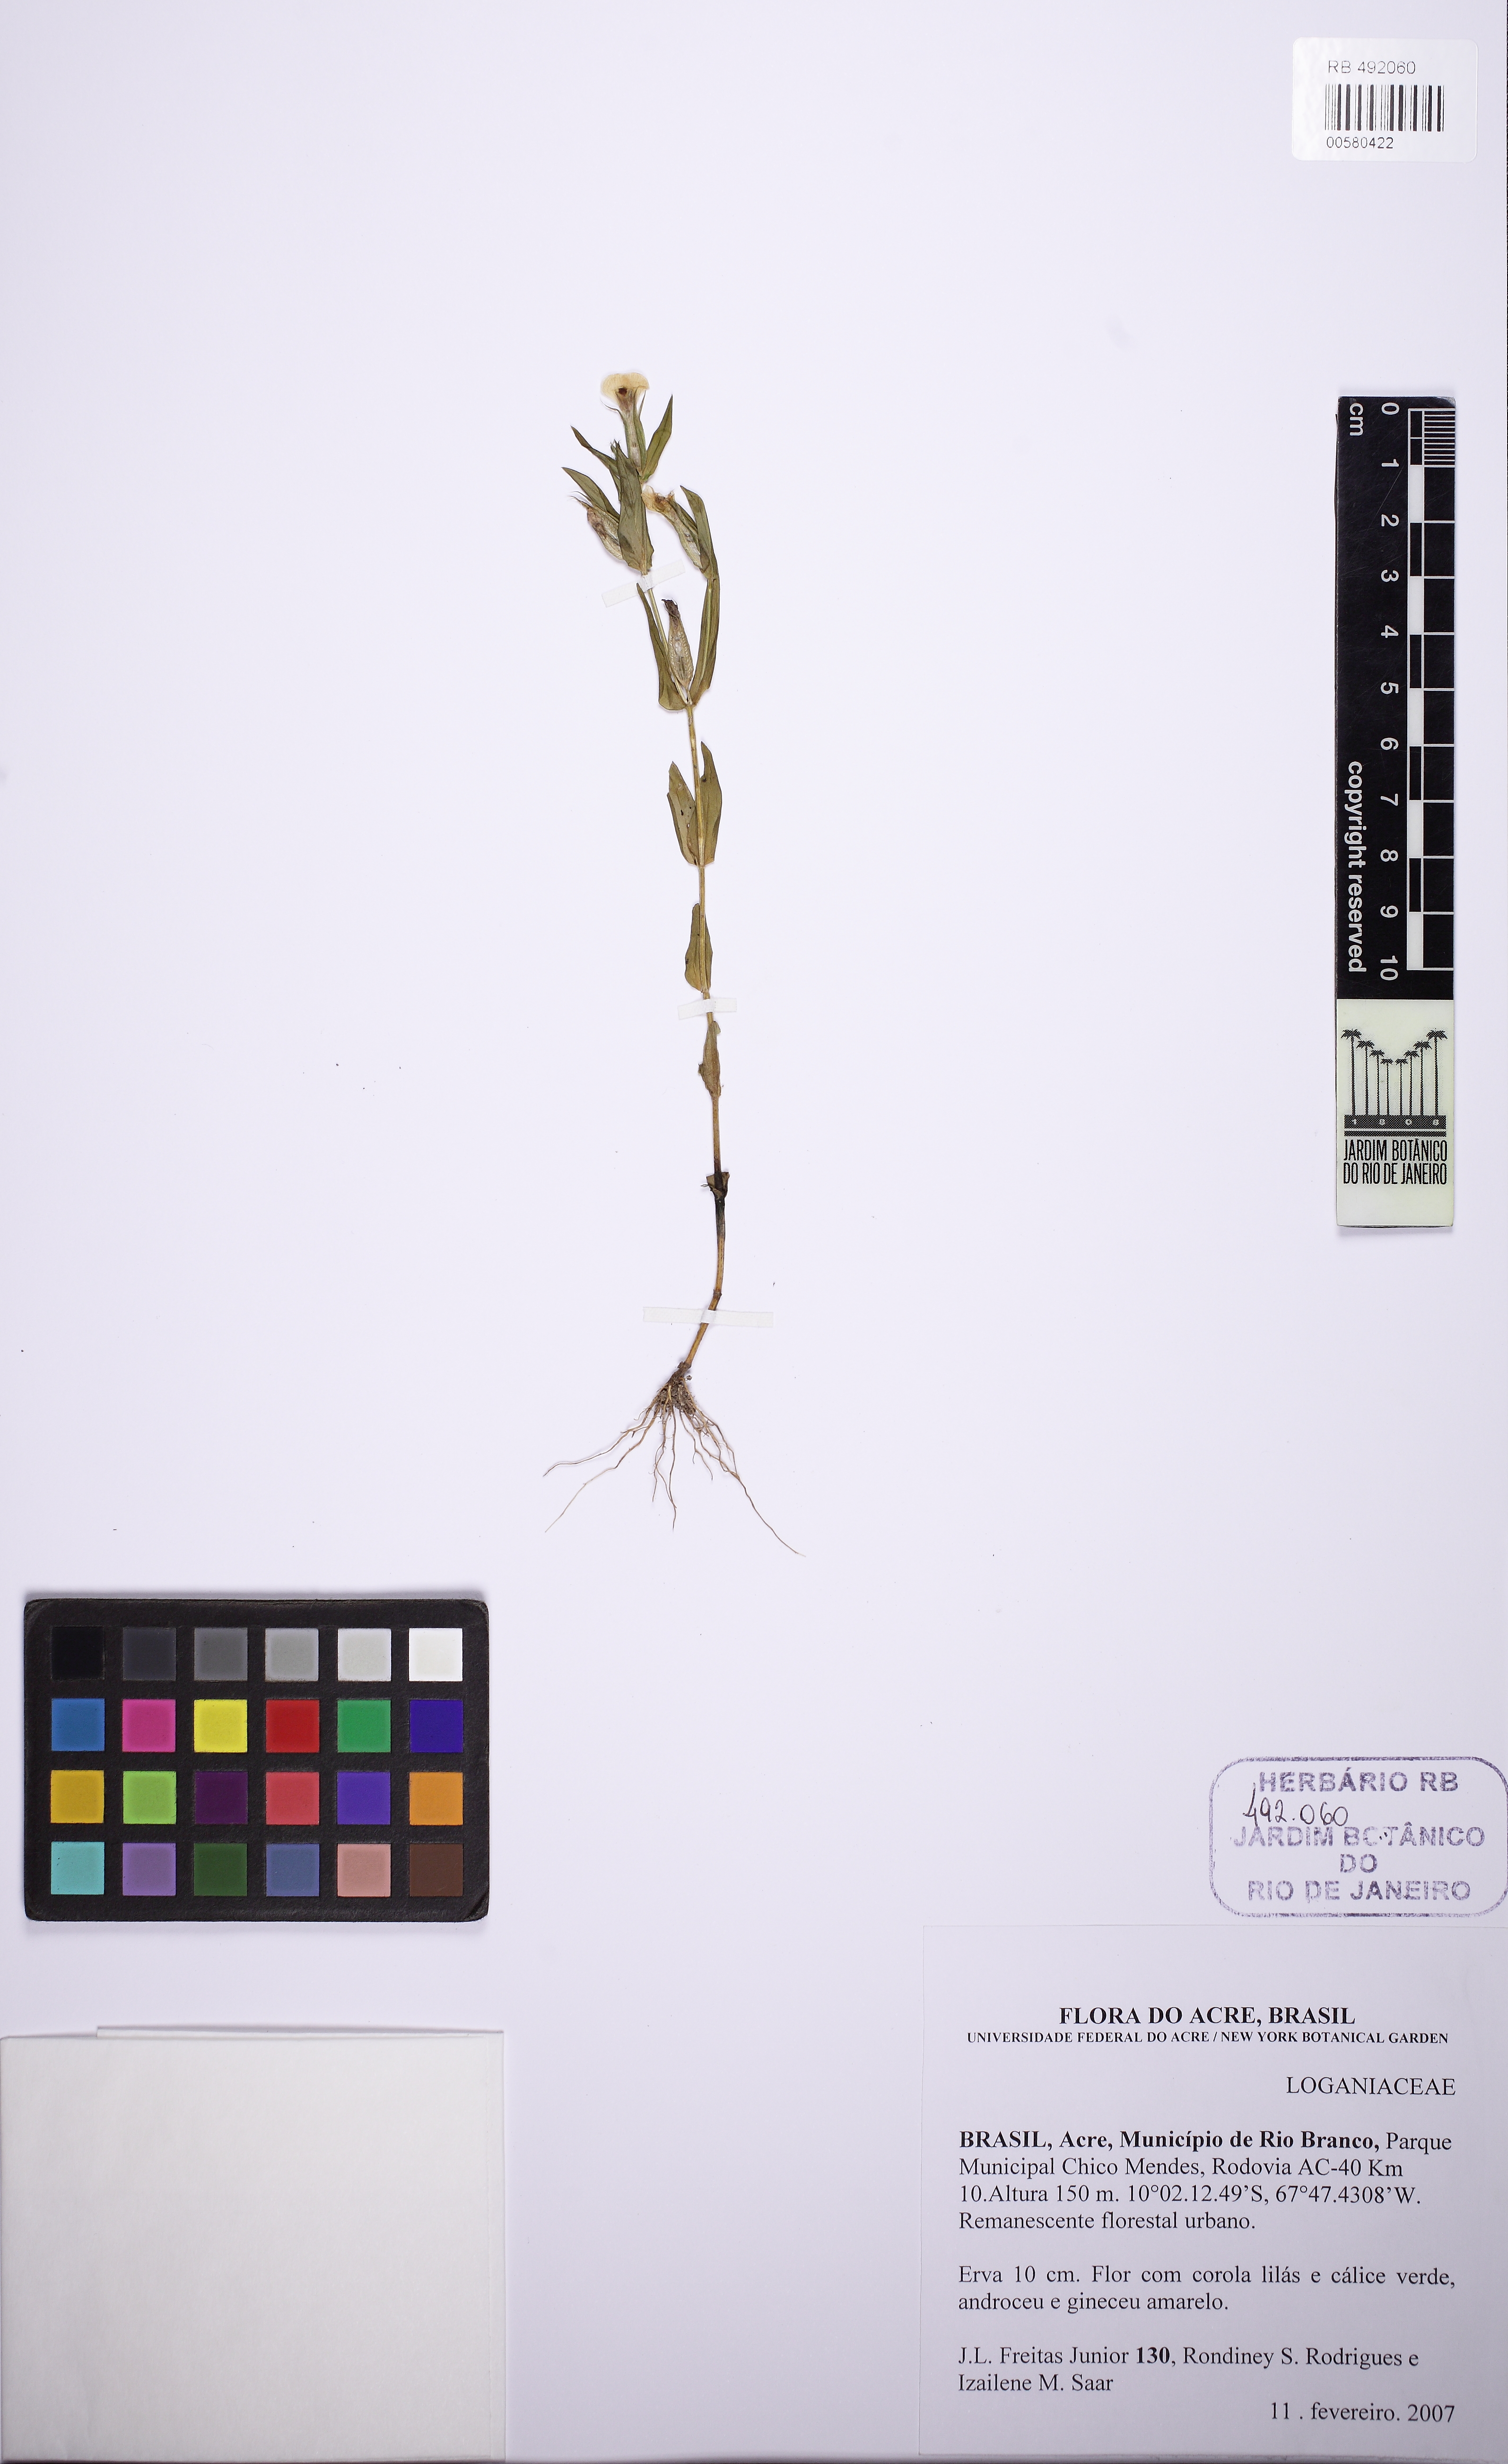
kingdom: Plantae
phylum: Tracheophyta
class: Magnoliopsida
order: Gentianales
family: Gentianaceae
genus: Schultesia
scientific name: Schultesia
